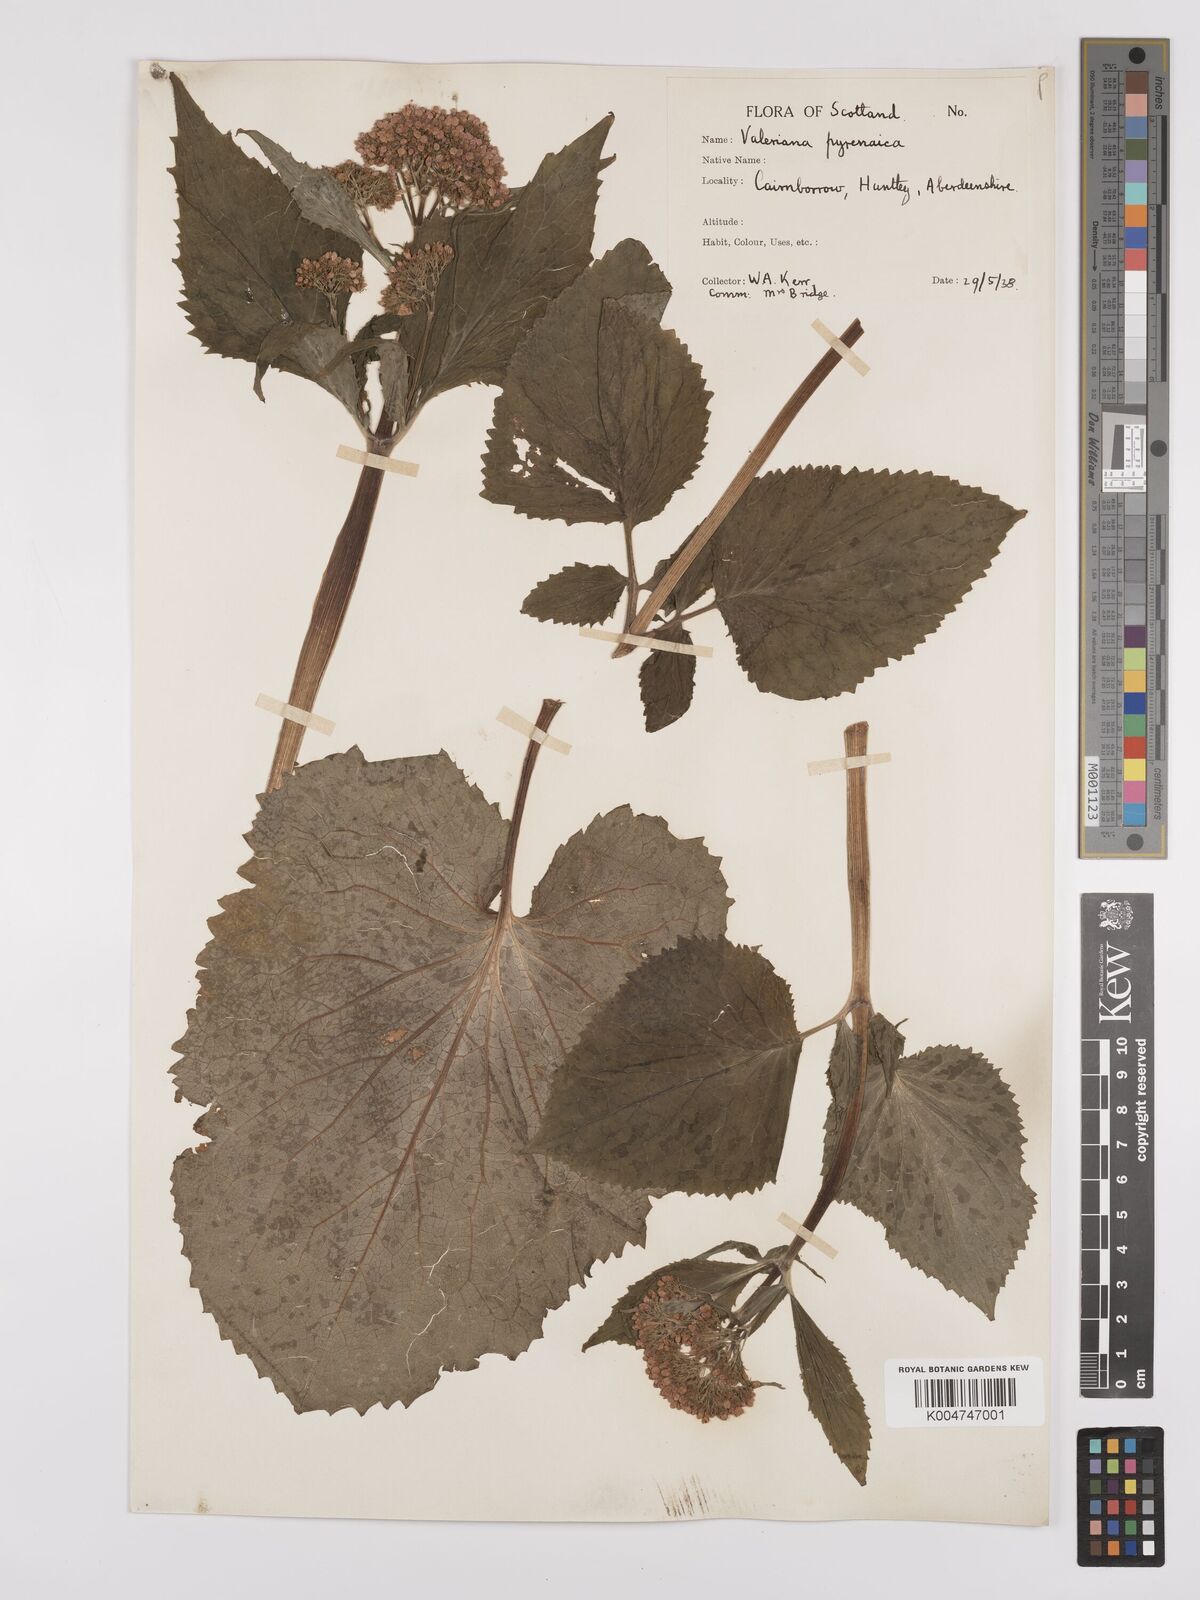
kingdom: Plantae
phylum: Tracheophyta
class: Magnoliopsida
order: Dipsacales
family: Caprifoliaceae
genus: Valeriana
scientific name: Valeriana pyrenaica
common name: Pyrenean valerian
